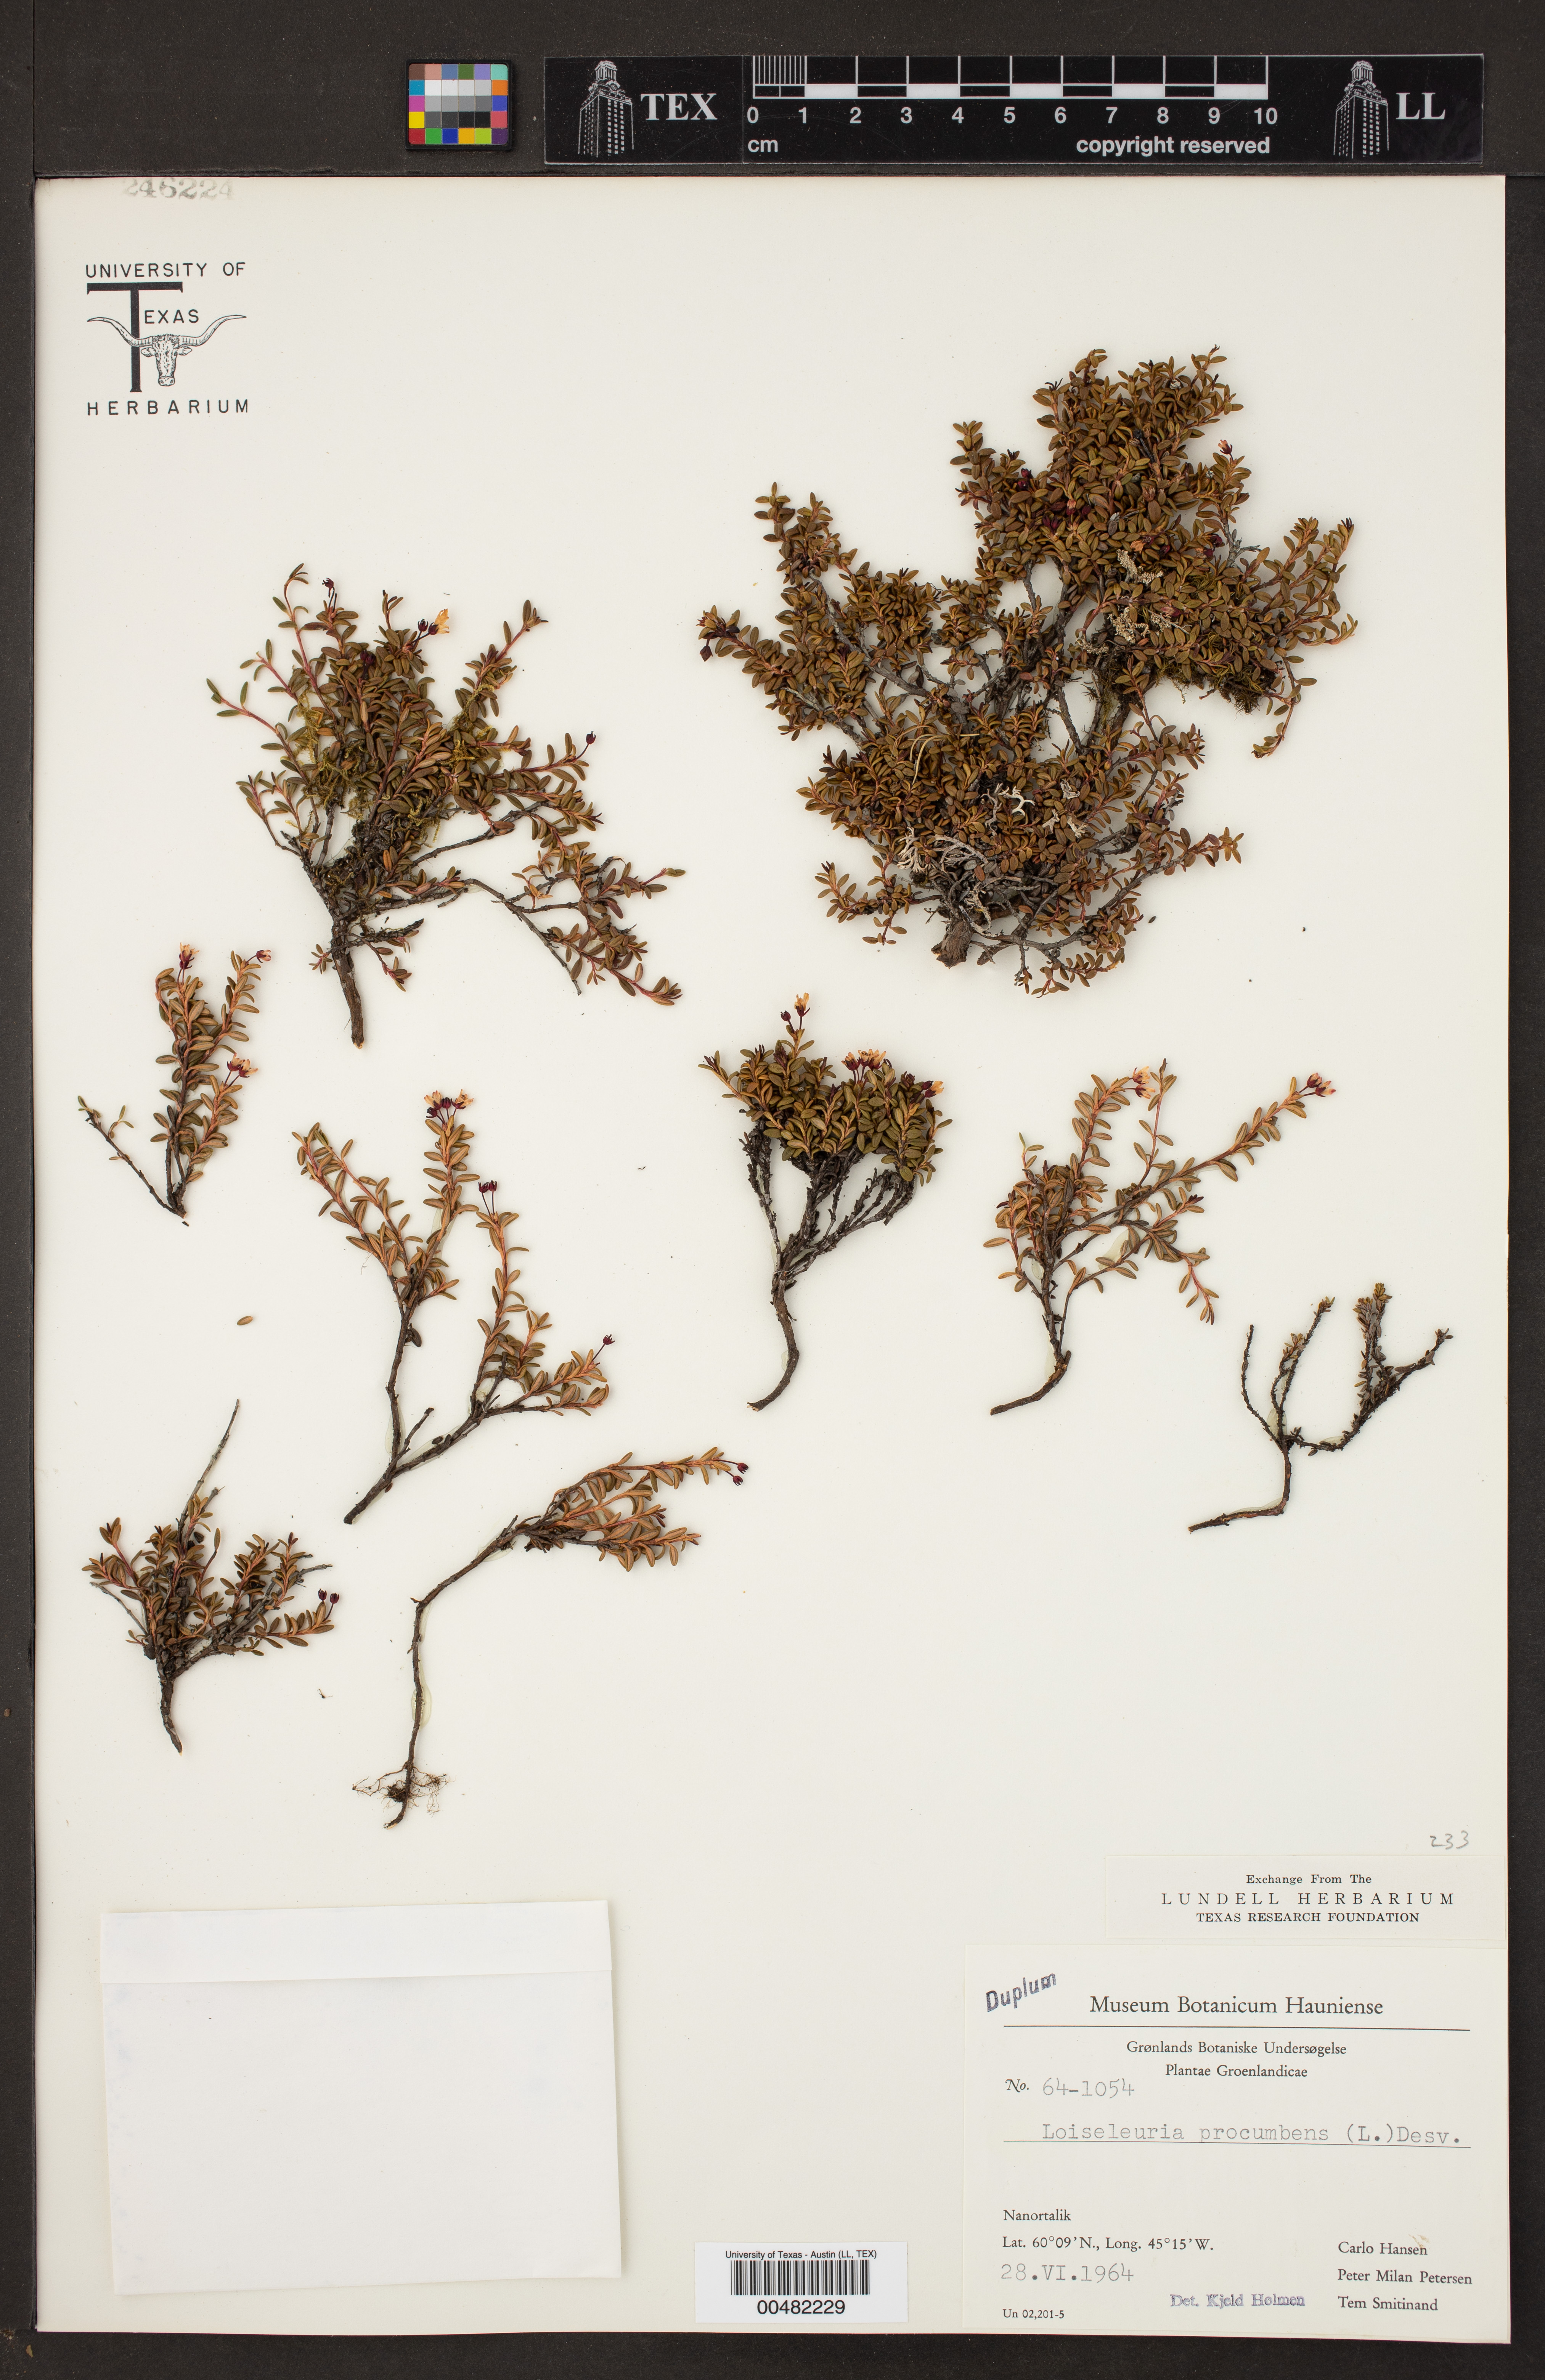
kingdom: Plantae
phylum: Tracheophyta
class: Magnoliopsida
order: Ericales
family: Ericaceae
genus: Kalmia
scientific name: Kalmia procumbens
